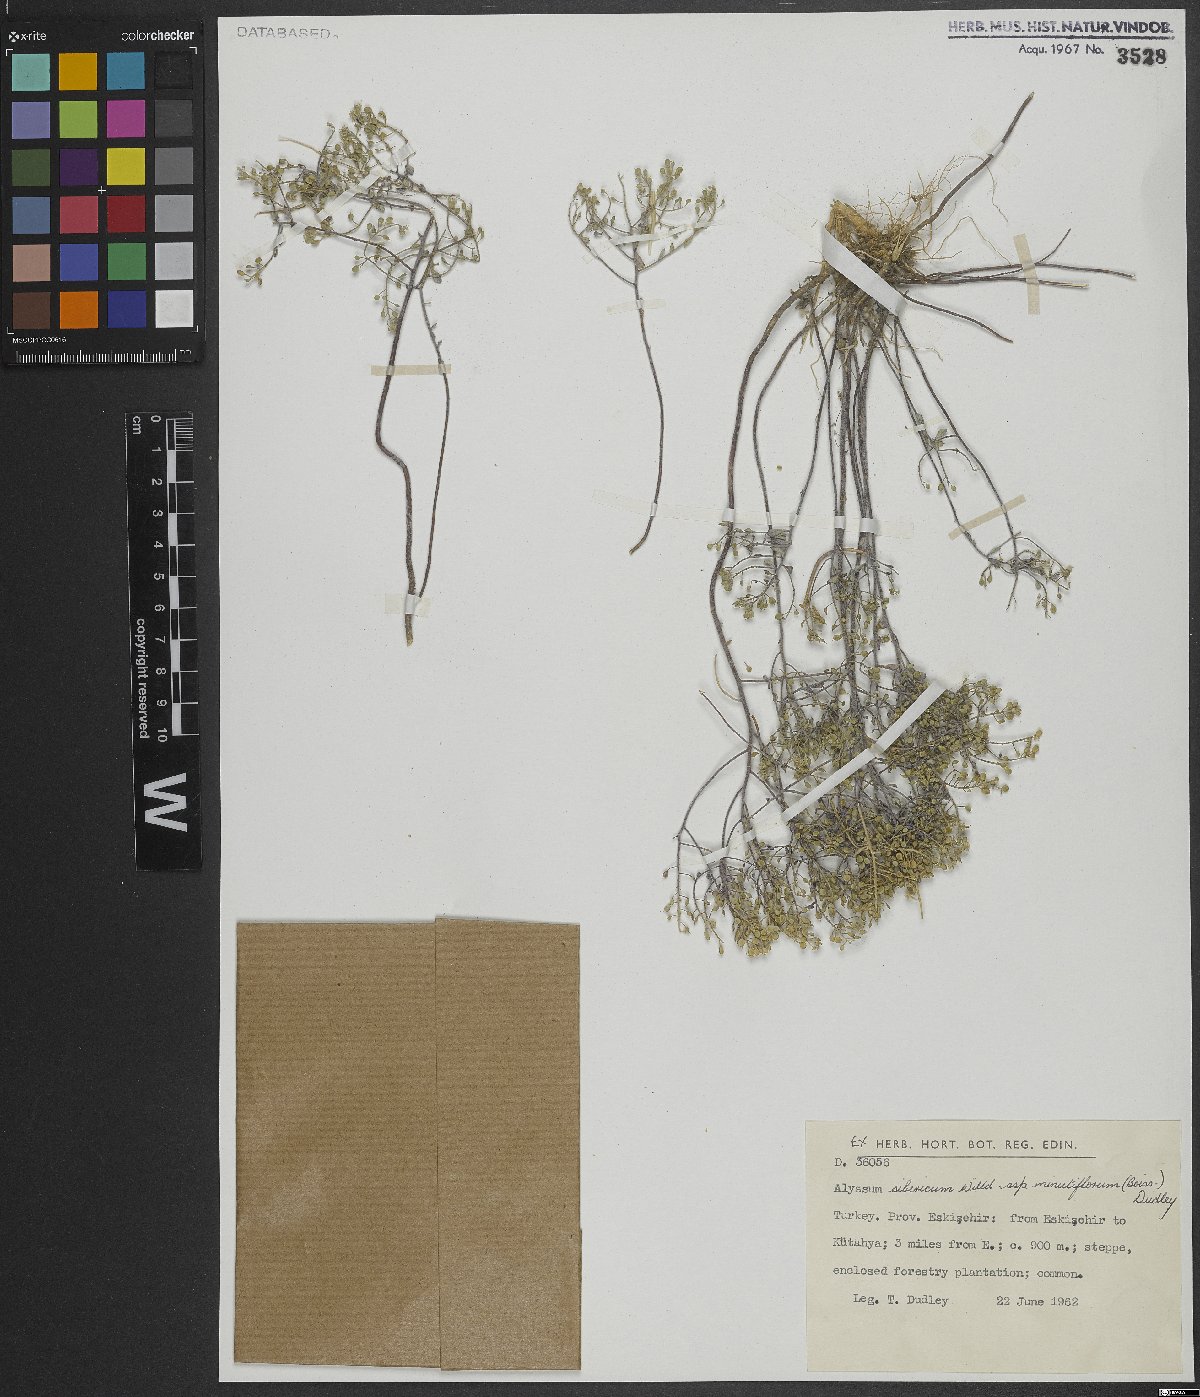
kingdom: Plantae
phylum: Tracheophyta
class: Magnoliopsida
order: Brassicales
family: Brassicaceae
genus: Odontarrhena
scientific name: Odontarrhena sibirica
